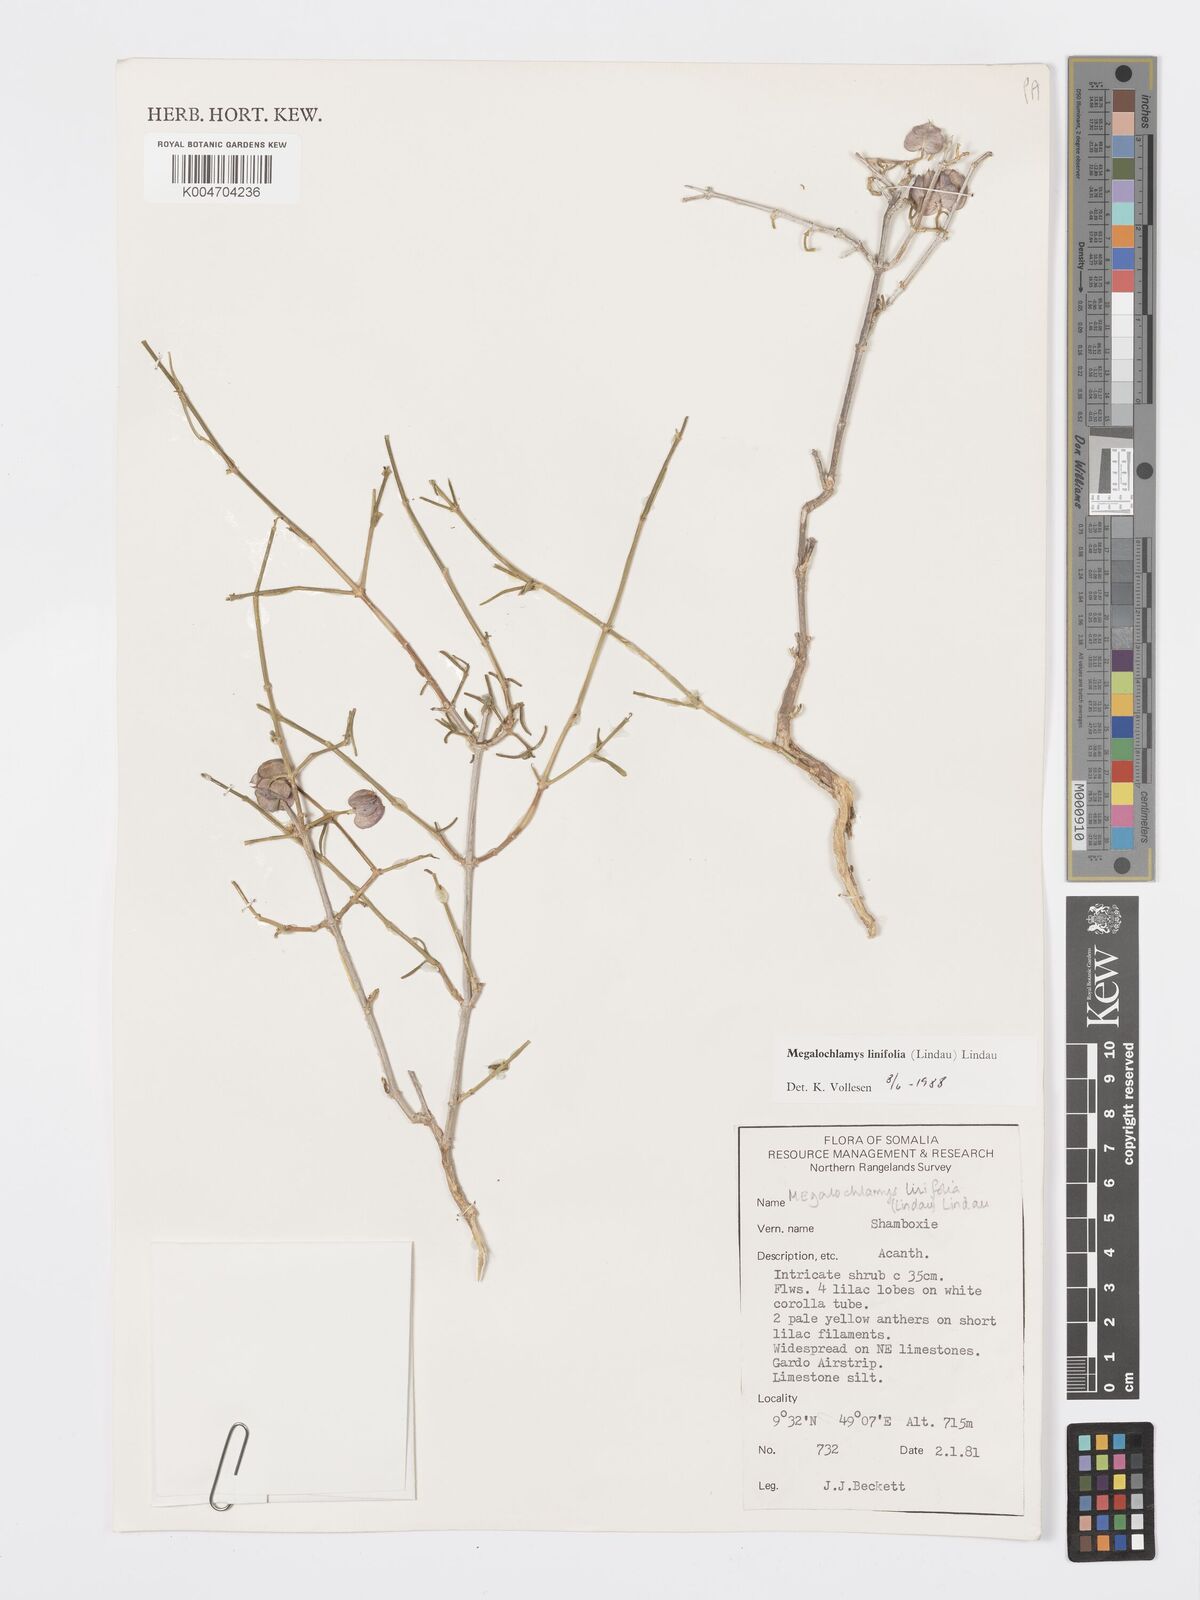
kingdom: Plantae
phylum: Tracheophyta
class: Magnoliopsida
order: Lamiales
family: Acanthaceae
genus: Megalochlamys
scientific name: Megalochlamys linifolia
